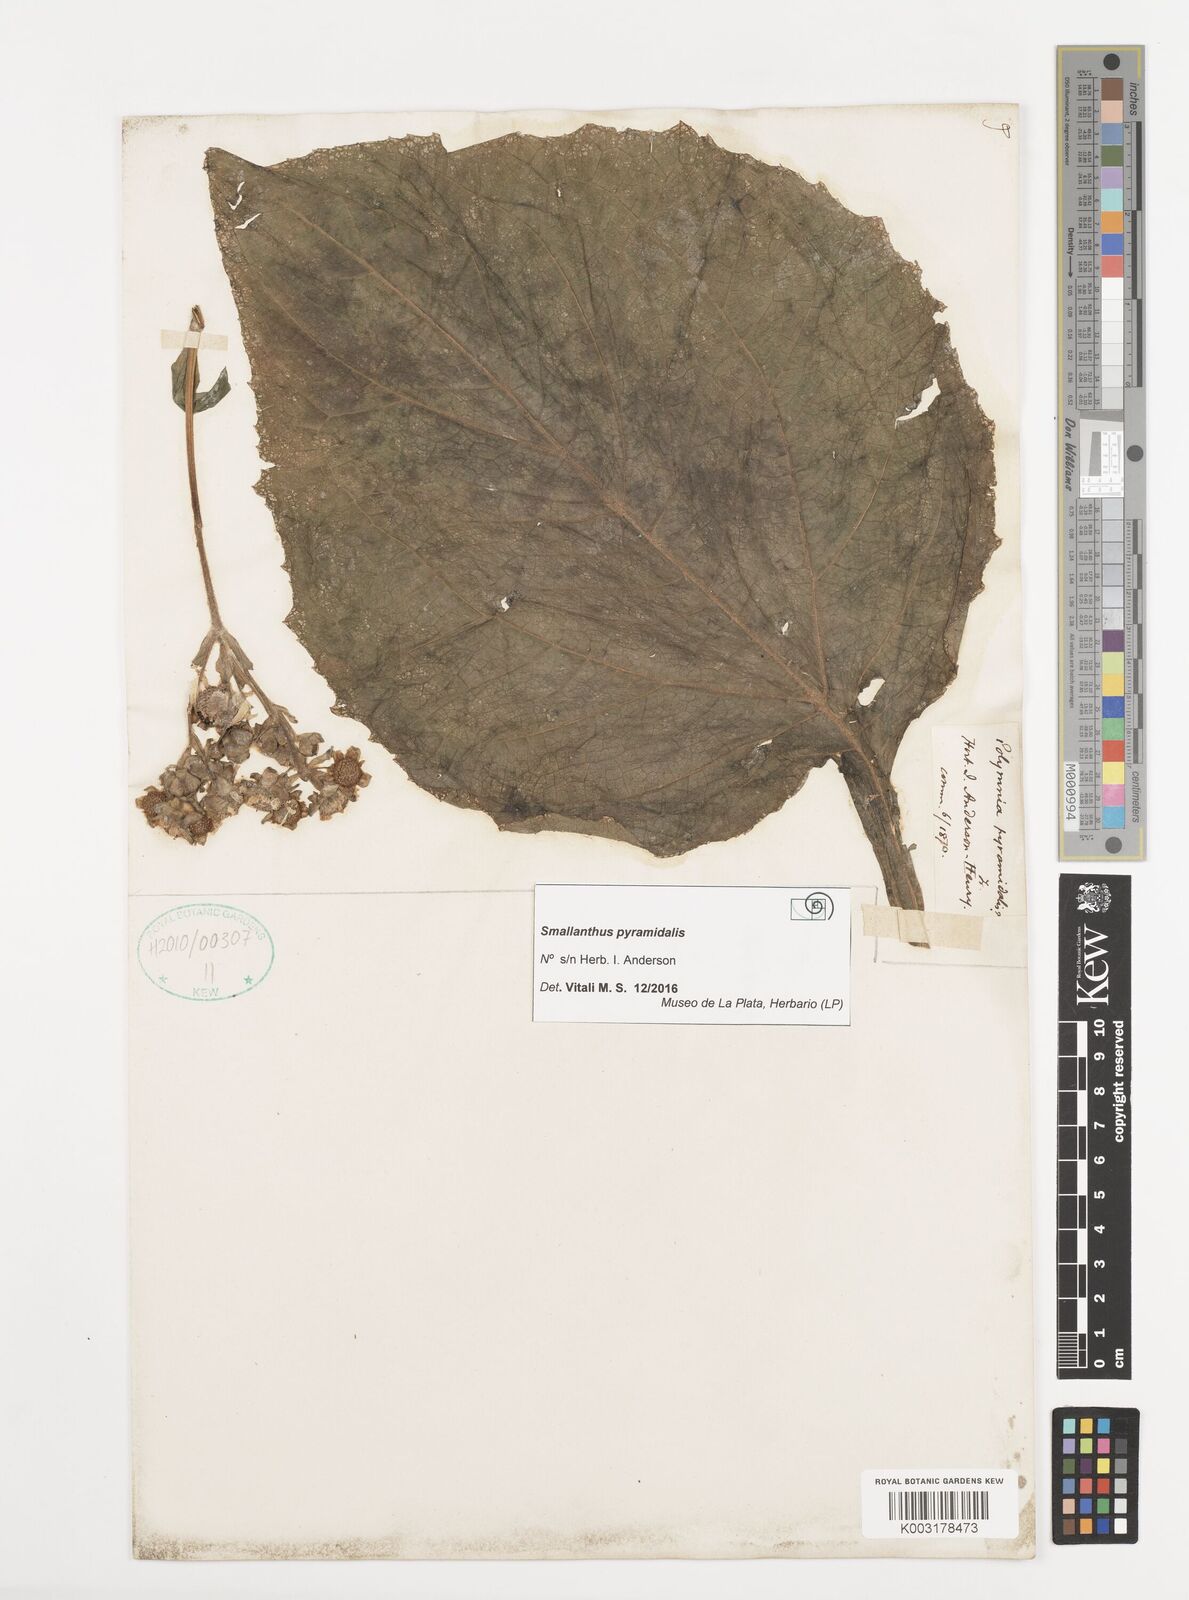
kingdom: Plantae
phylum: Tracheophyta
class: Magnoliopsida
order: Asterales
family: Asteraceae
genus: Smallanthus
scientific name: Smallanthus
